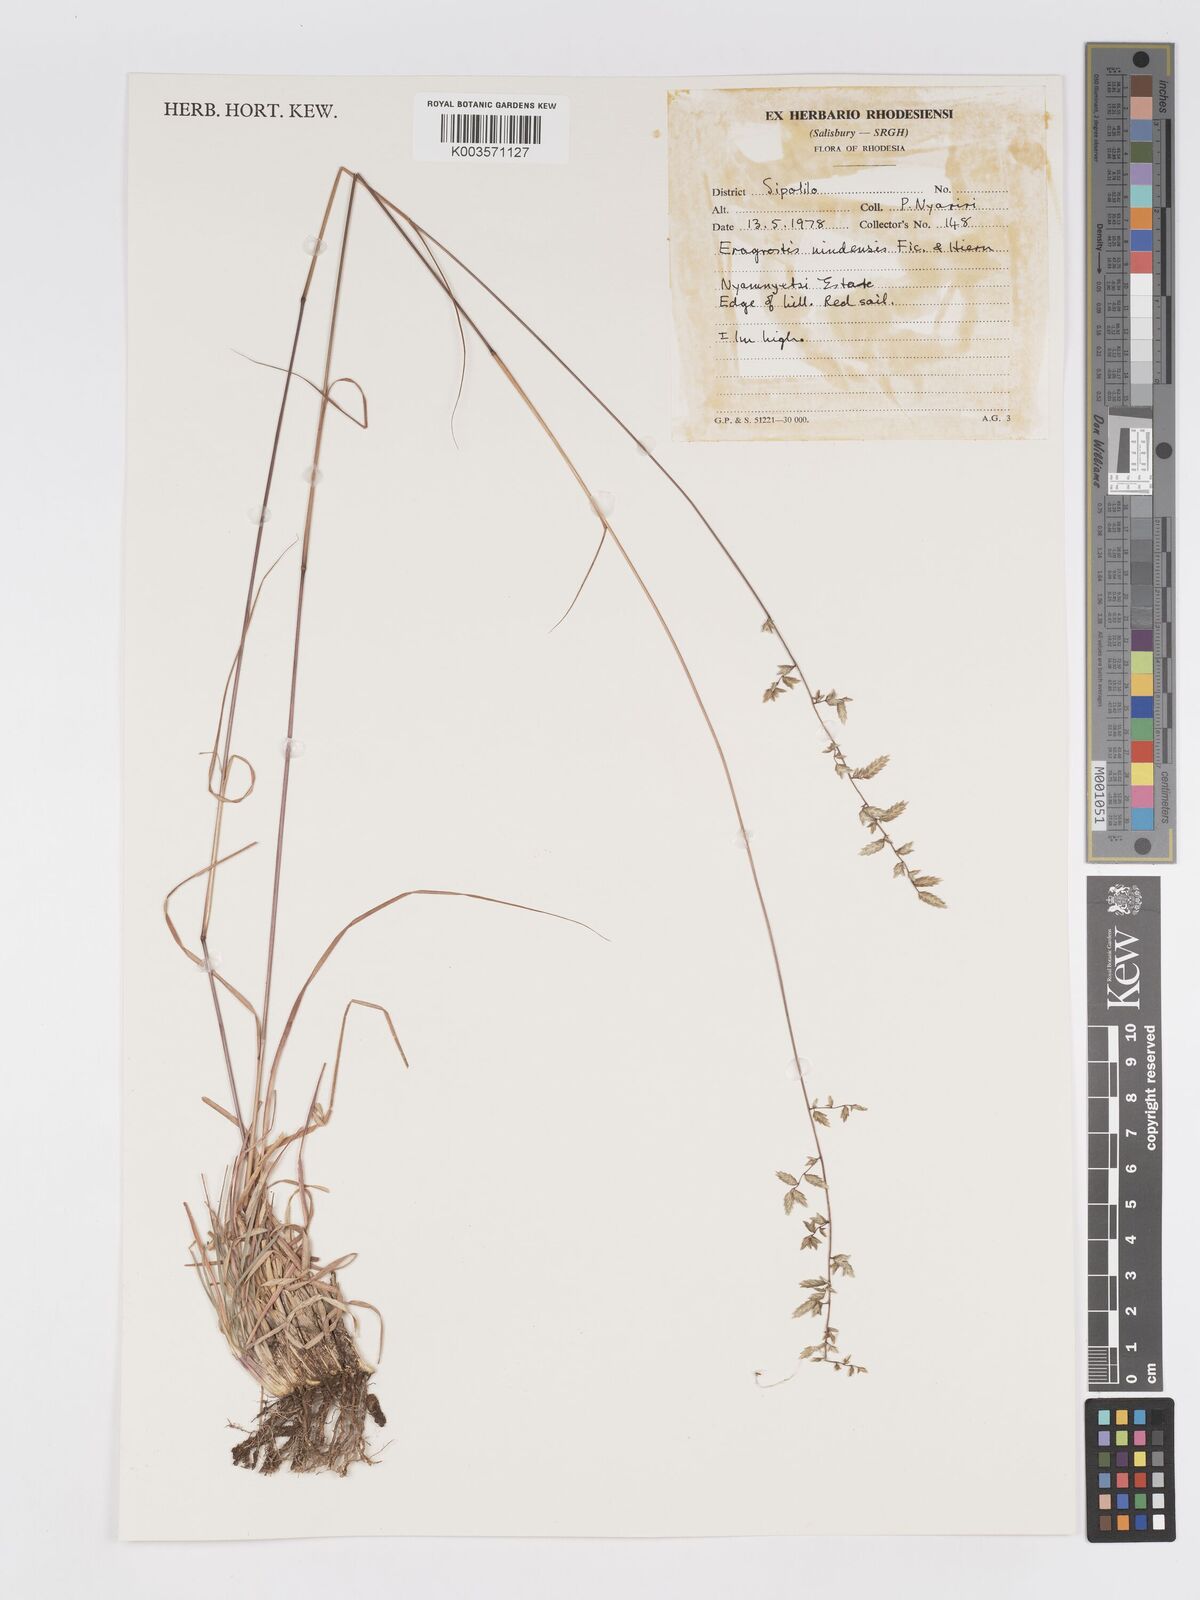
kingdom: Plantae
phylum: Tracheophyta
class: Liliopsida
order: Poales
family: Poaceae
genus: Eragrostis
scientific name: Eragrostis nindensis
